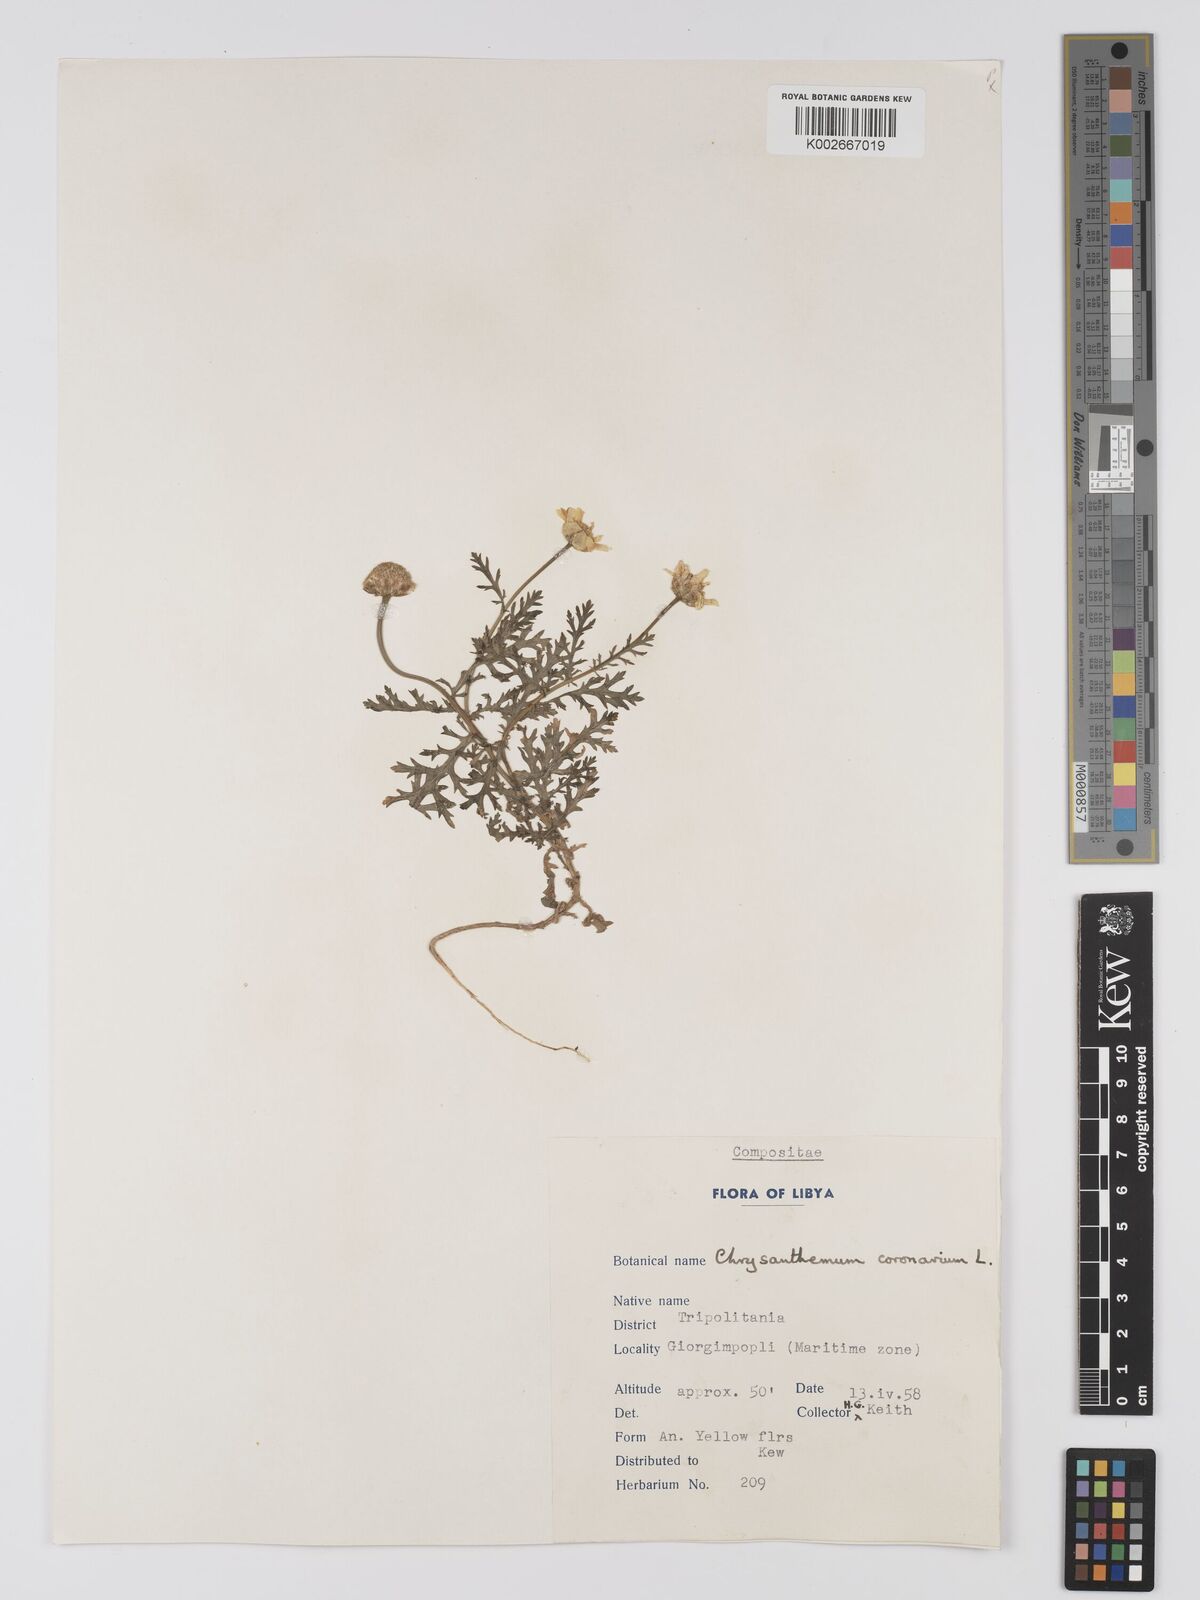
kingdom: Plantae
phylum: Tracheophyta
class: Magnoliopsida
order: Asterales
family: Asteraceae
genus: Glebionis
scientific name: Glebionis coronaria
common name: Crowndaisy
